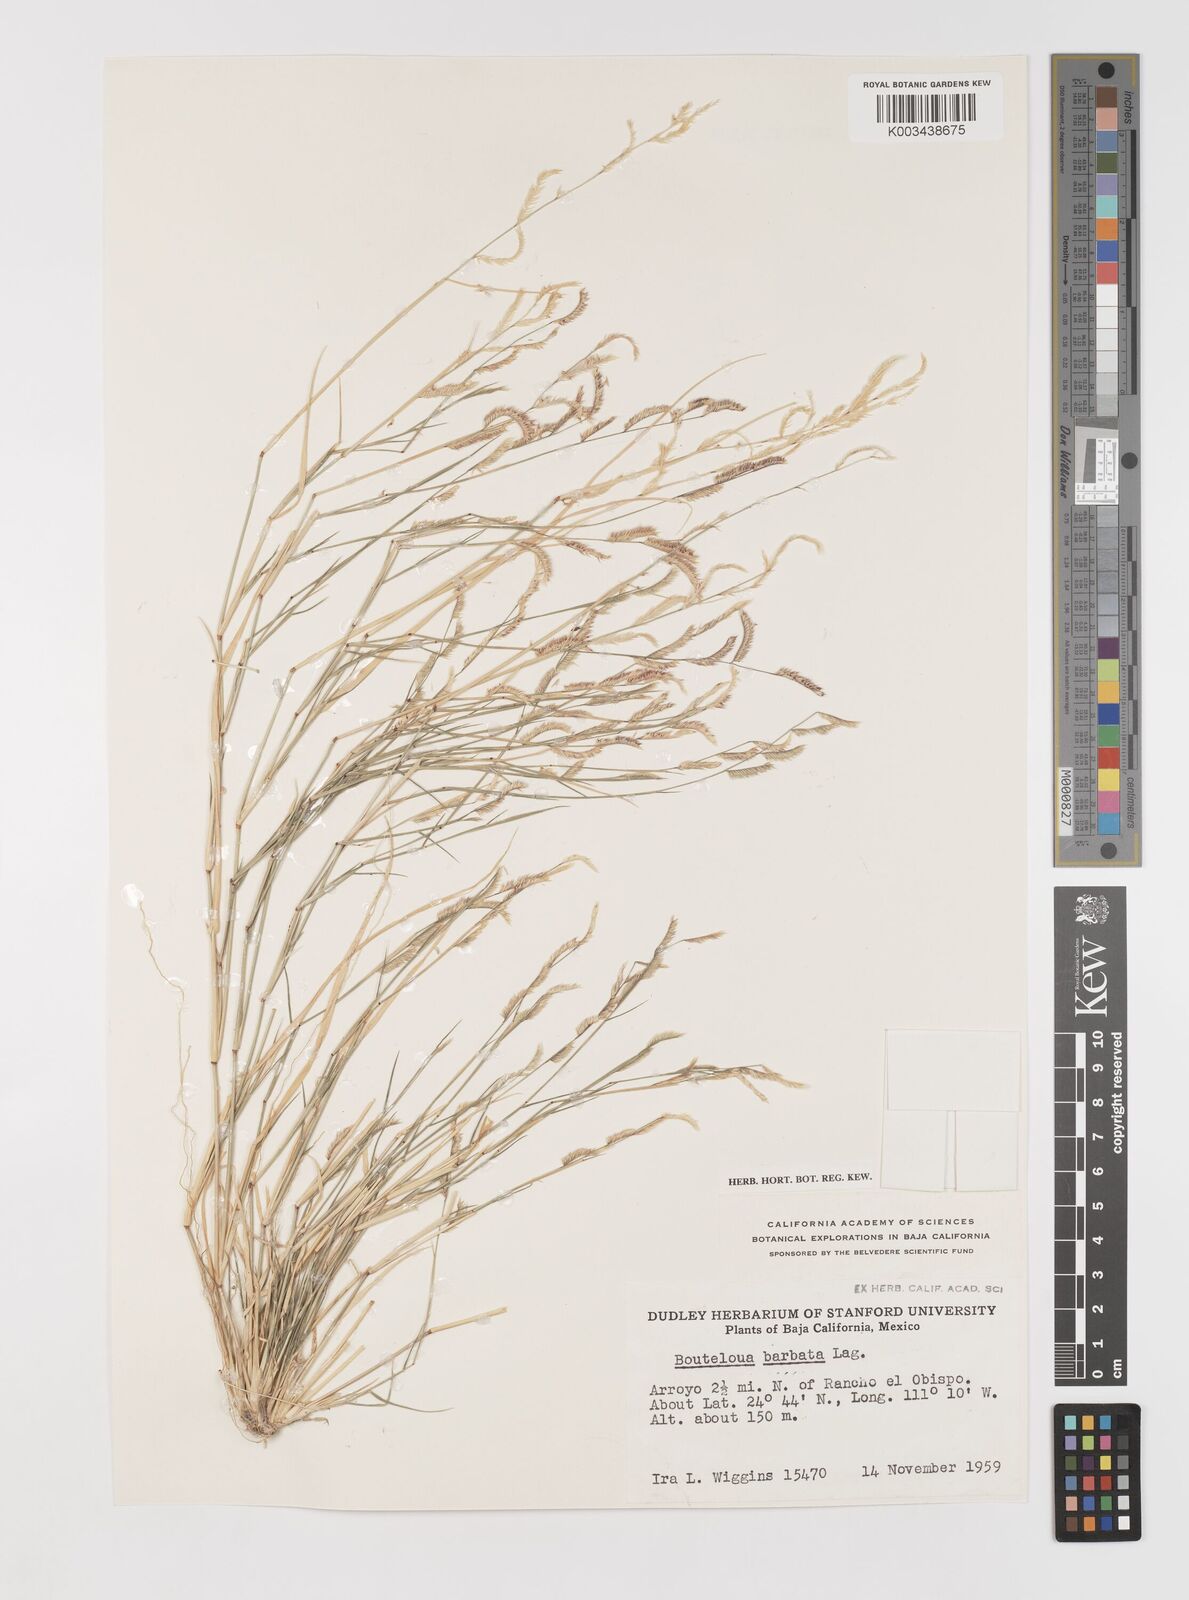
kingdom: Plantae
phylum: Tracheophyta
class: Liliopsida
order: Poales
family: Poaceae
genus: Bouteloua
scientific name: Bouteloua
